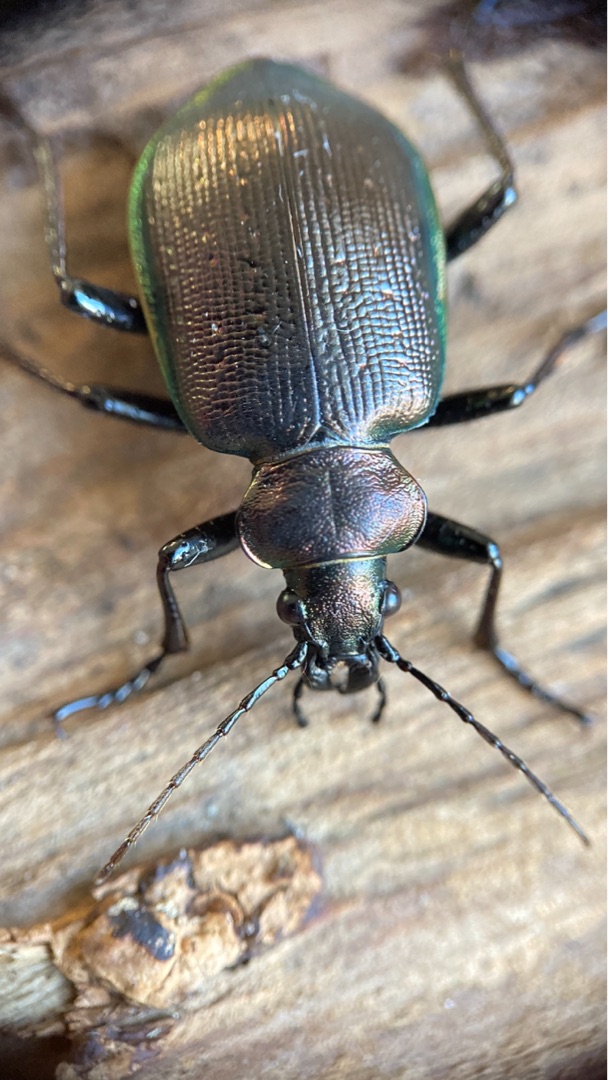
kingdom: Animalia
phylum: Arthropoda
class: Insecta
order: Coleoptera
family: Carabidae
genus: Calosoma
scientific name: Calosoma inquisitor
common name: Lille pupperøver
